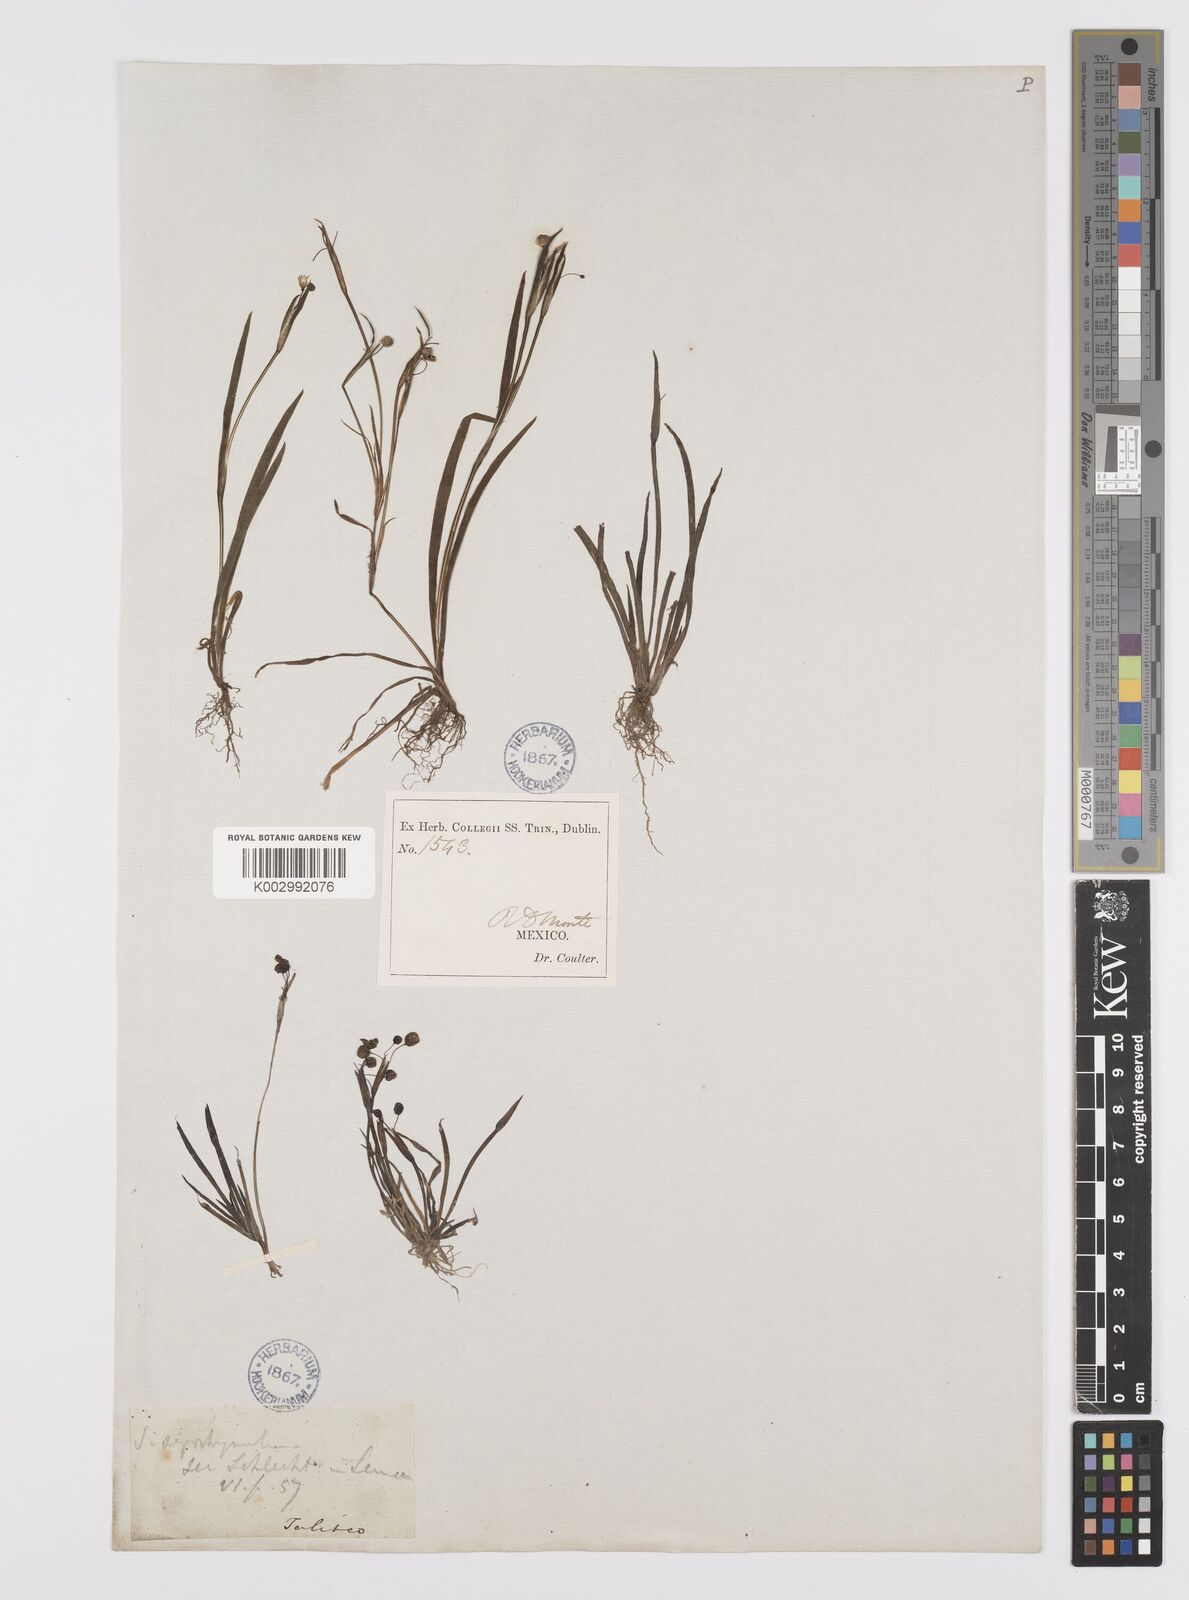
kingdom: Plantae
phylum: Tracheophyta
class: Liliopsida
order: Asparagales
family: Iridaceae
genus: Sisyrinchium
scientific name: Sisyrinchium bermudiana
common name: Blue-eyed-grass
